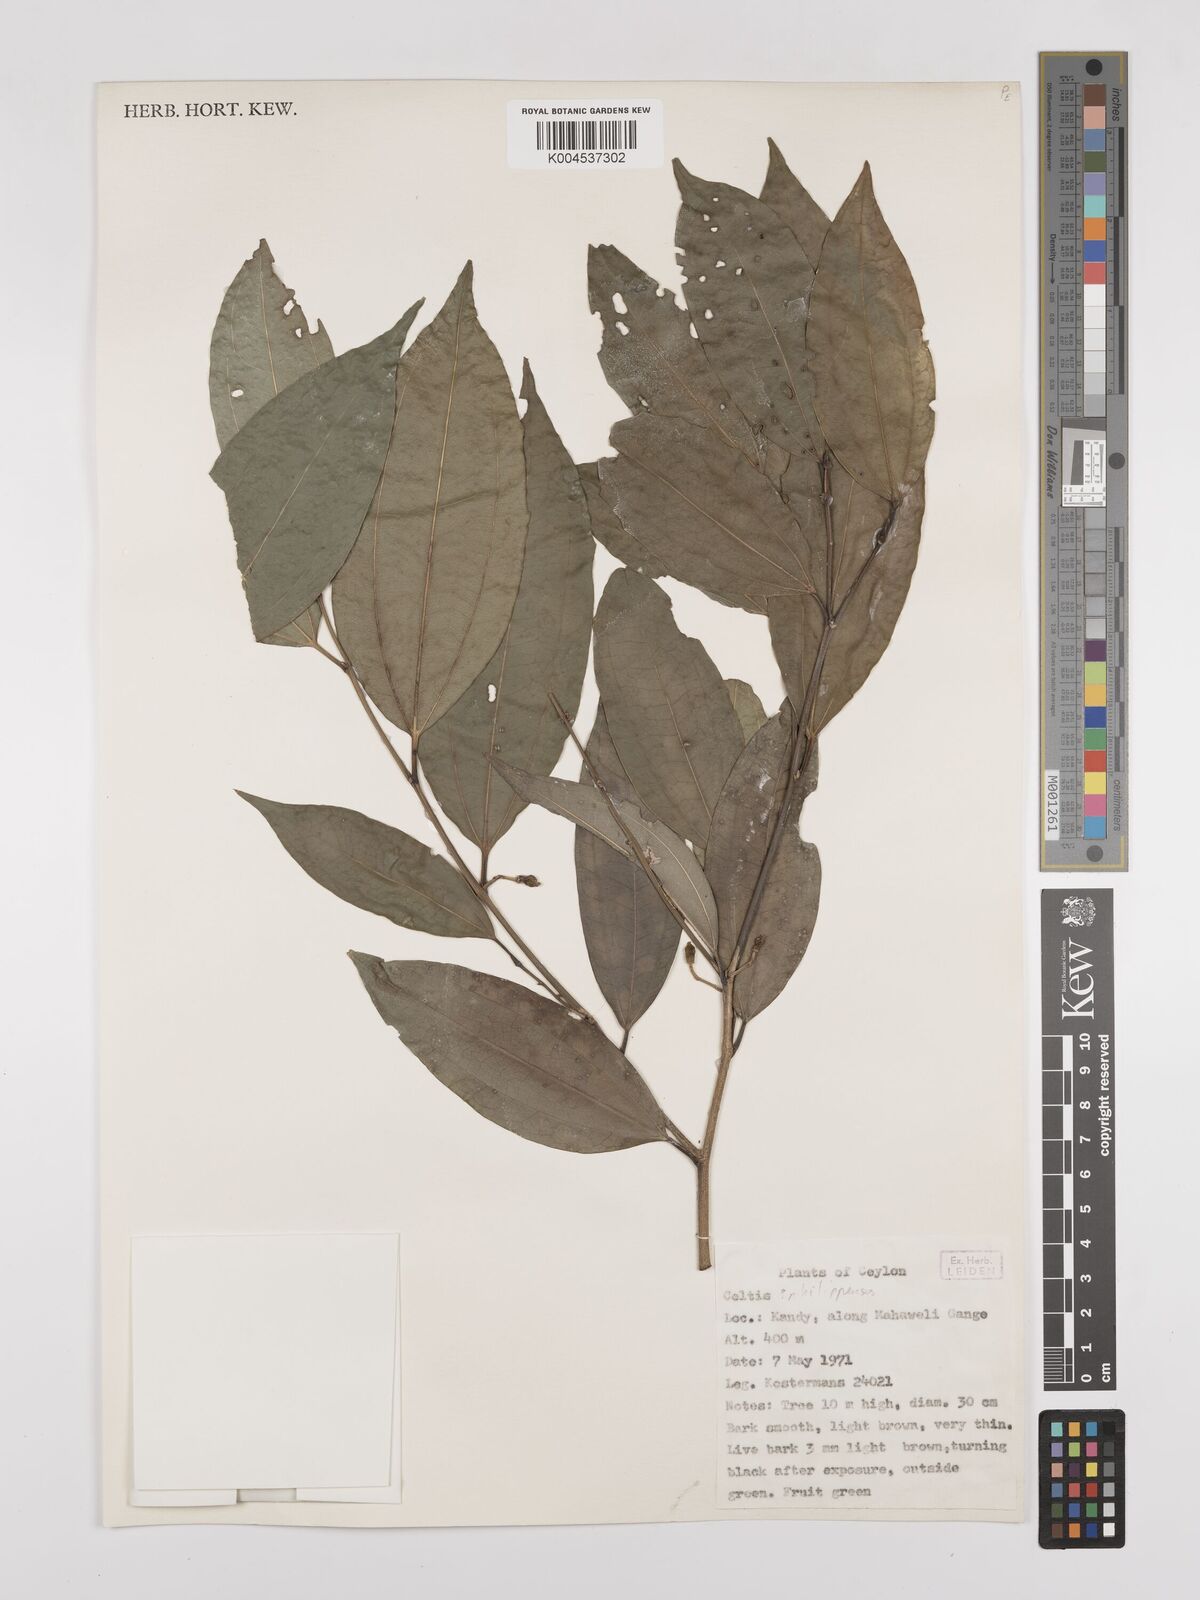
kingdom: Plantae
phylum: Tracheophyta
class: Magnoliopsida
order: Rosales
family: Cannabaceae
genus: Celtis
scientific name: Celtis philippensis
